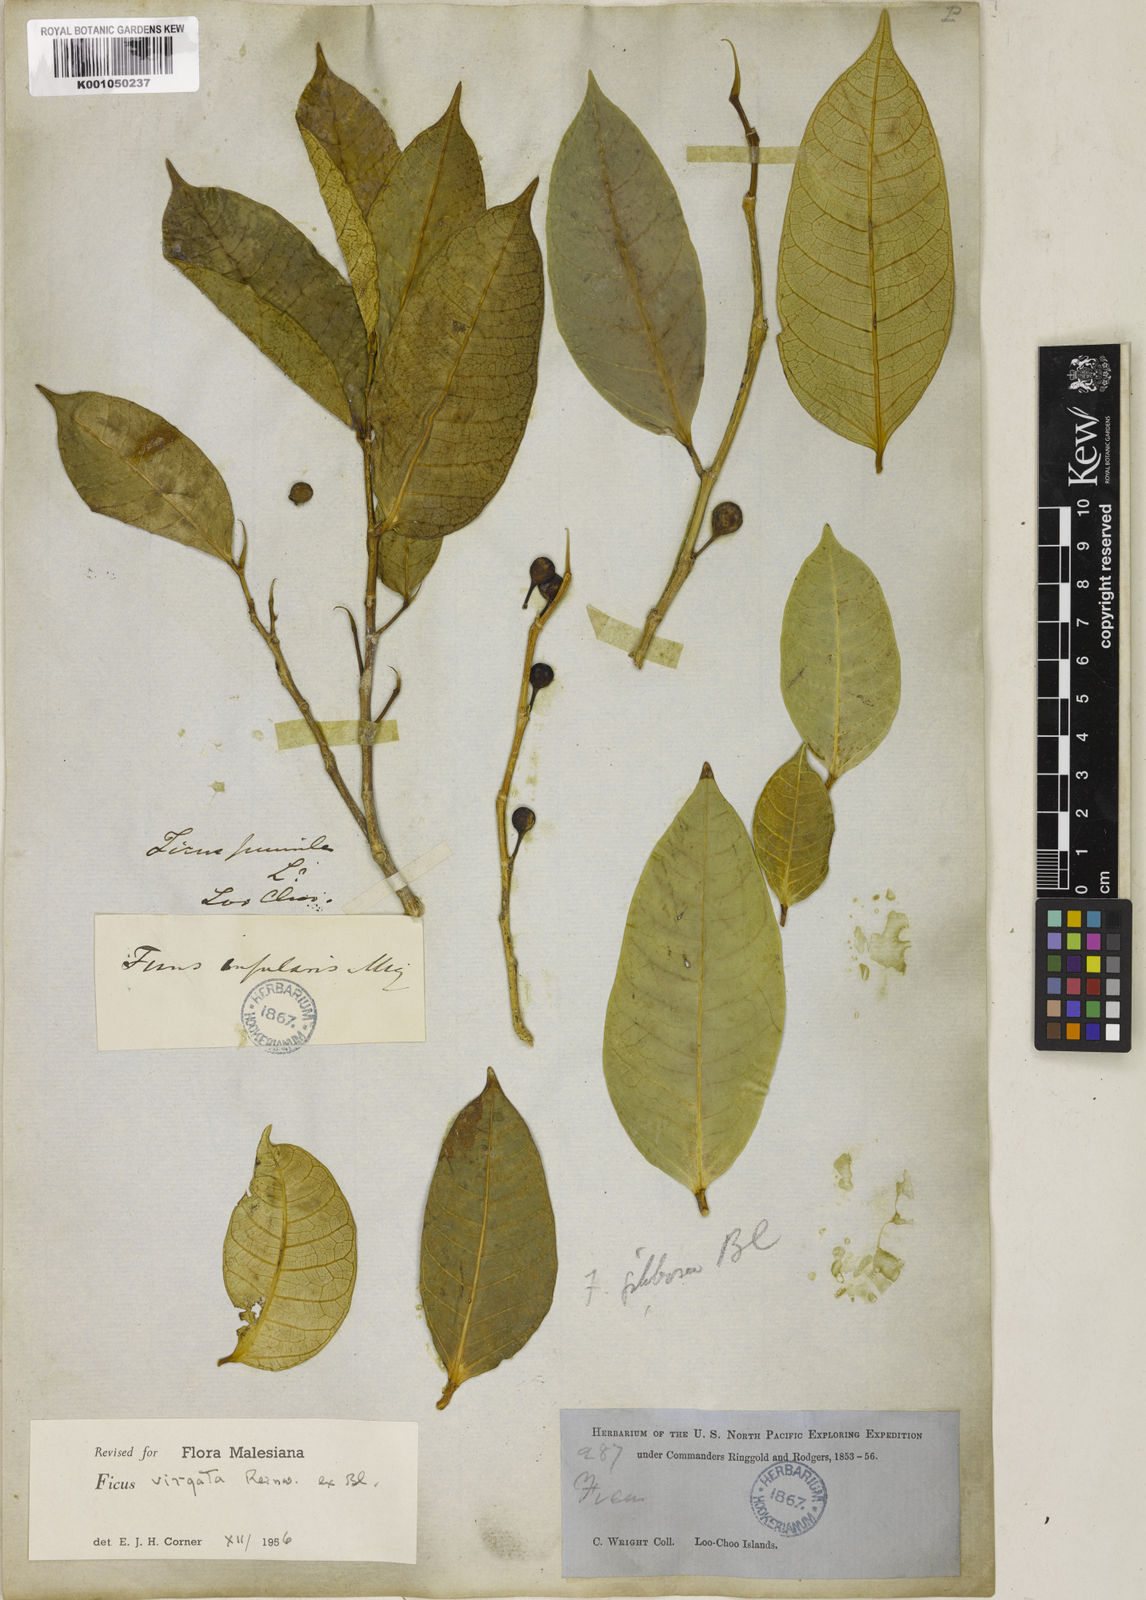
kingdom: Plantae
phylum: Tracheophyta
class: Magnoliopsida
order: Rosales
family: Moraceae
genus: Ficus
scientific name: Ficus virgata
